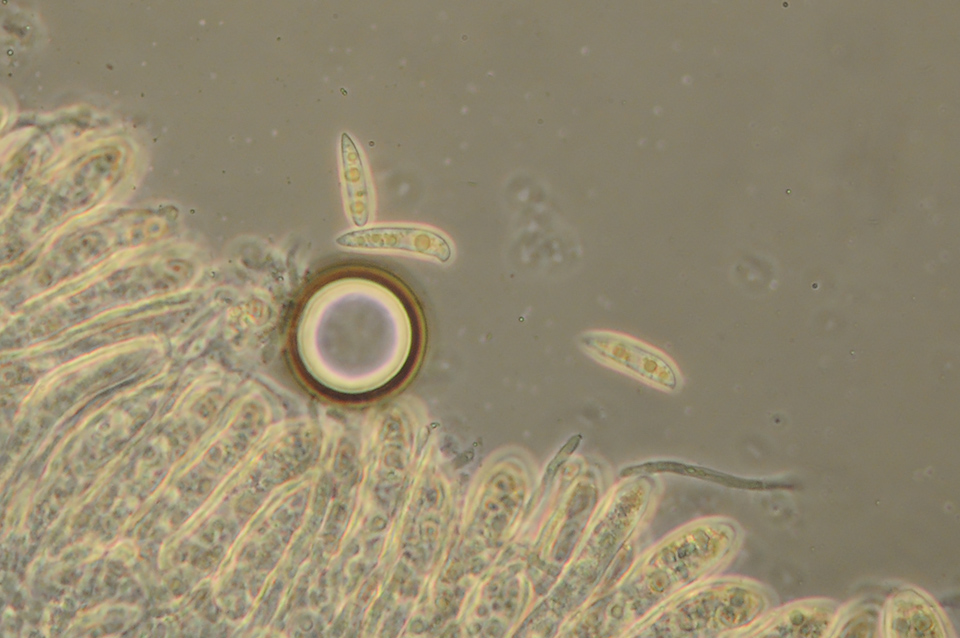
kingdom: Fungi
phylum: Ascomycota
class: Leotiomycetes
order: Helotiales
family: Helotiaceae
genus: Hymenoscyphus
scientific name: Hymenoscyphus scutula
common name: almindelig stilkskive
